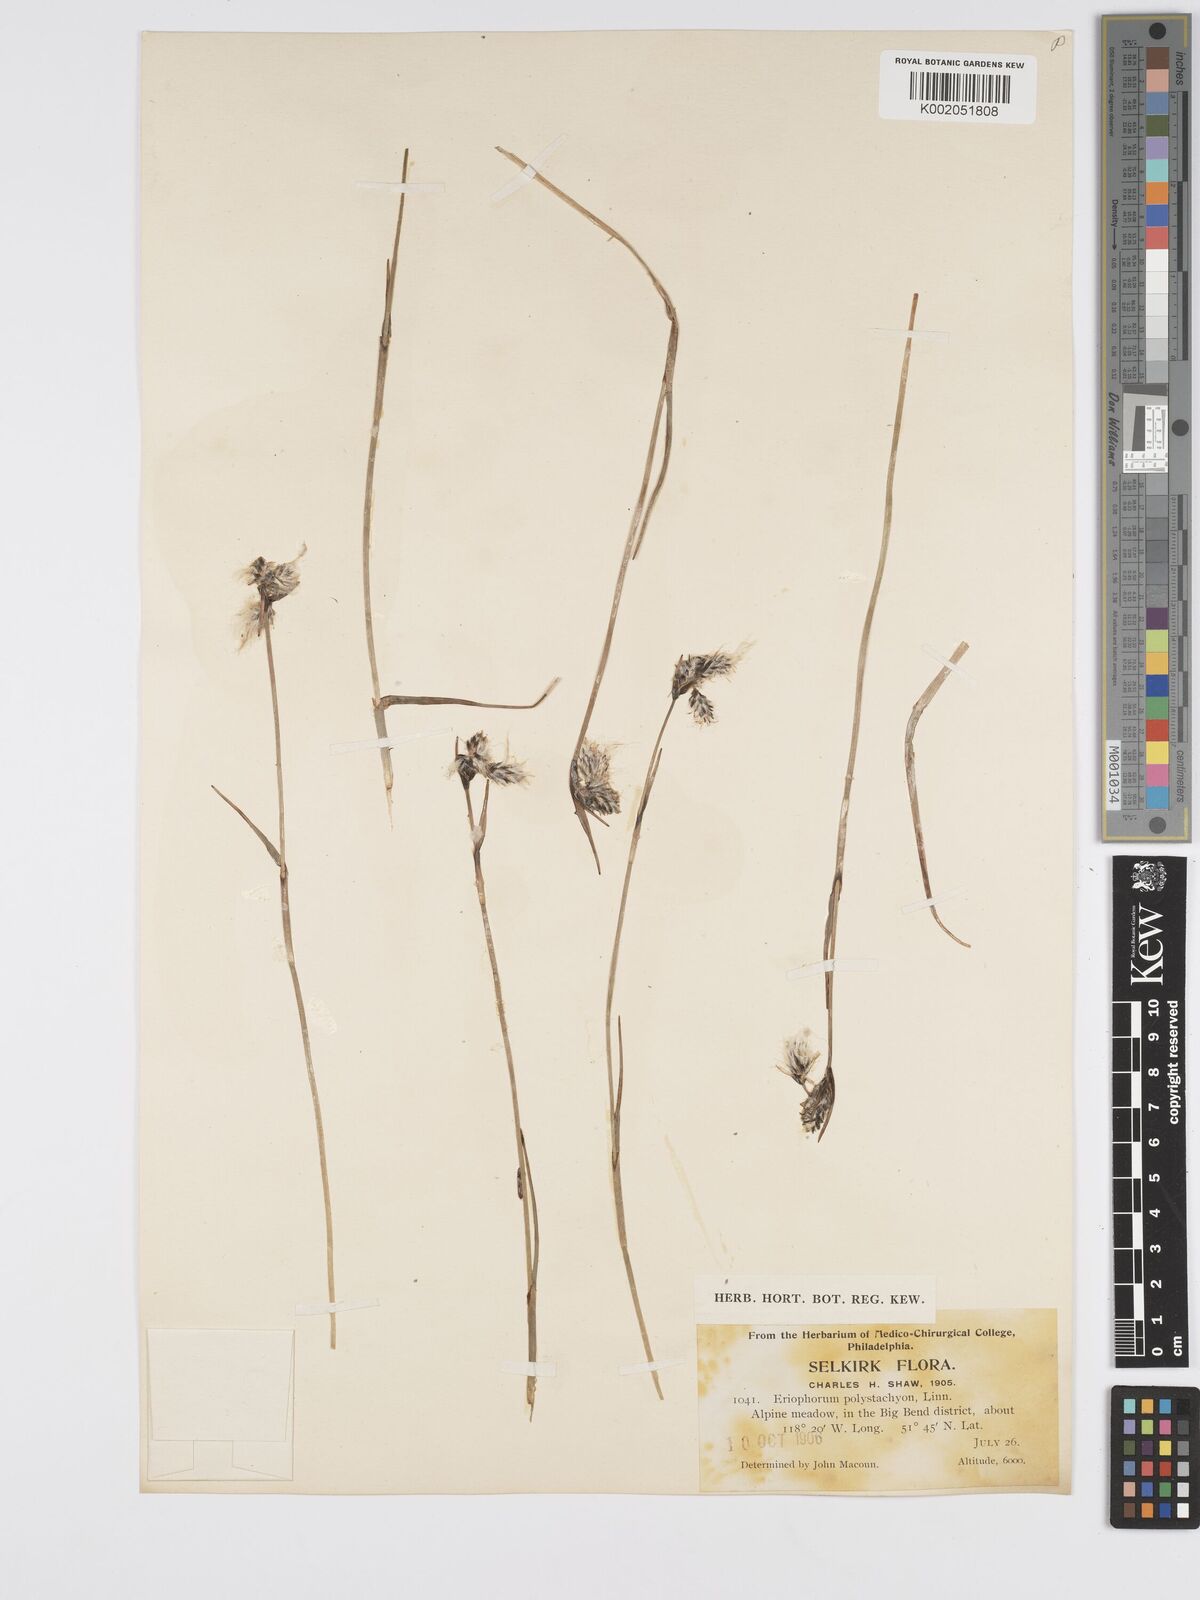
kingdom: Plantae
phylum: Tracheophyta
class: Liliopsida
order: Poales
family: Cyperaceae
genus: Eriophorum
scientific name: Eriophorum angustifolium
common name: Common cottongrass
